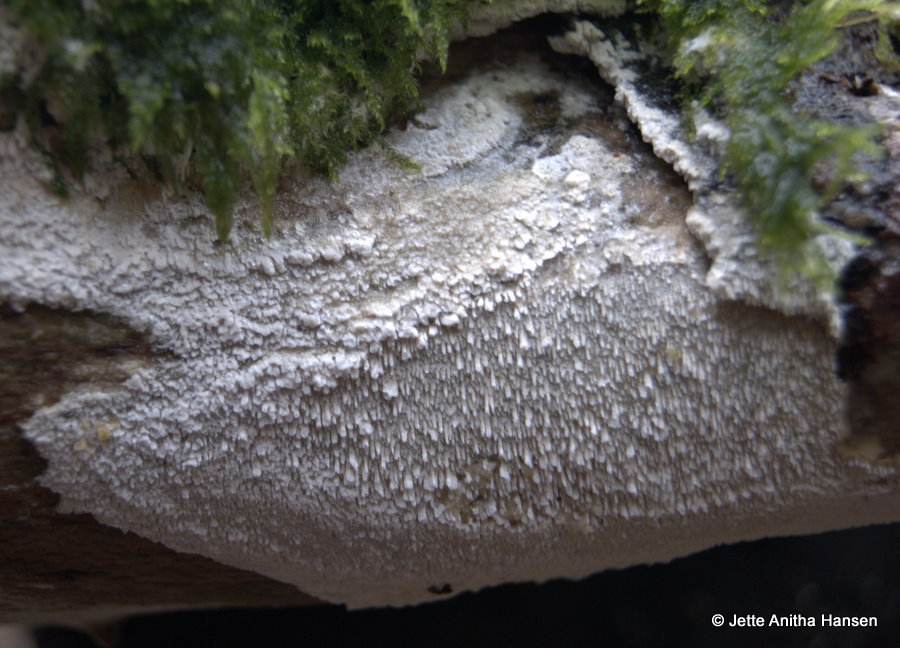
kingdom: Fungi
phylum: Basidiomycota
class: Agaricomycetes
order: Hymenochaetales
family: Schizoporaceae
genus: Schizopora
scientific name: Schizopora paradoxa
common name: hvid tandsvamp
